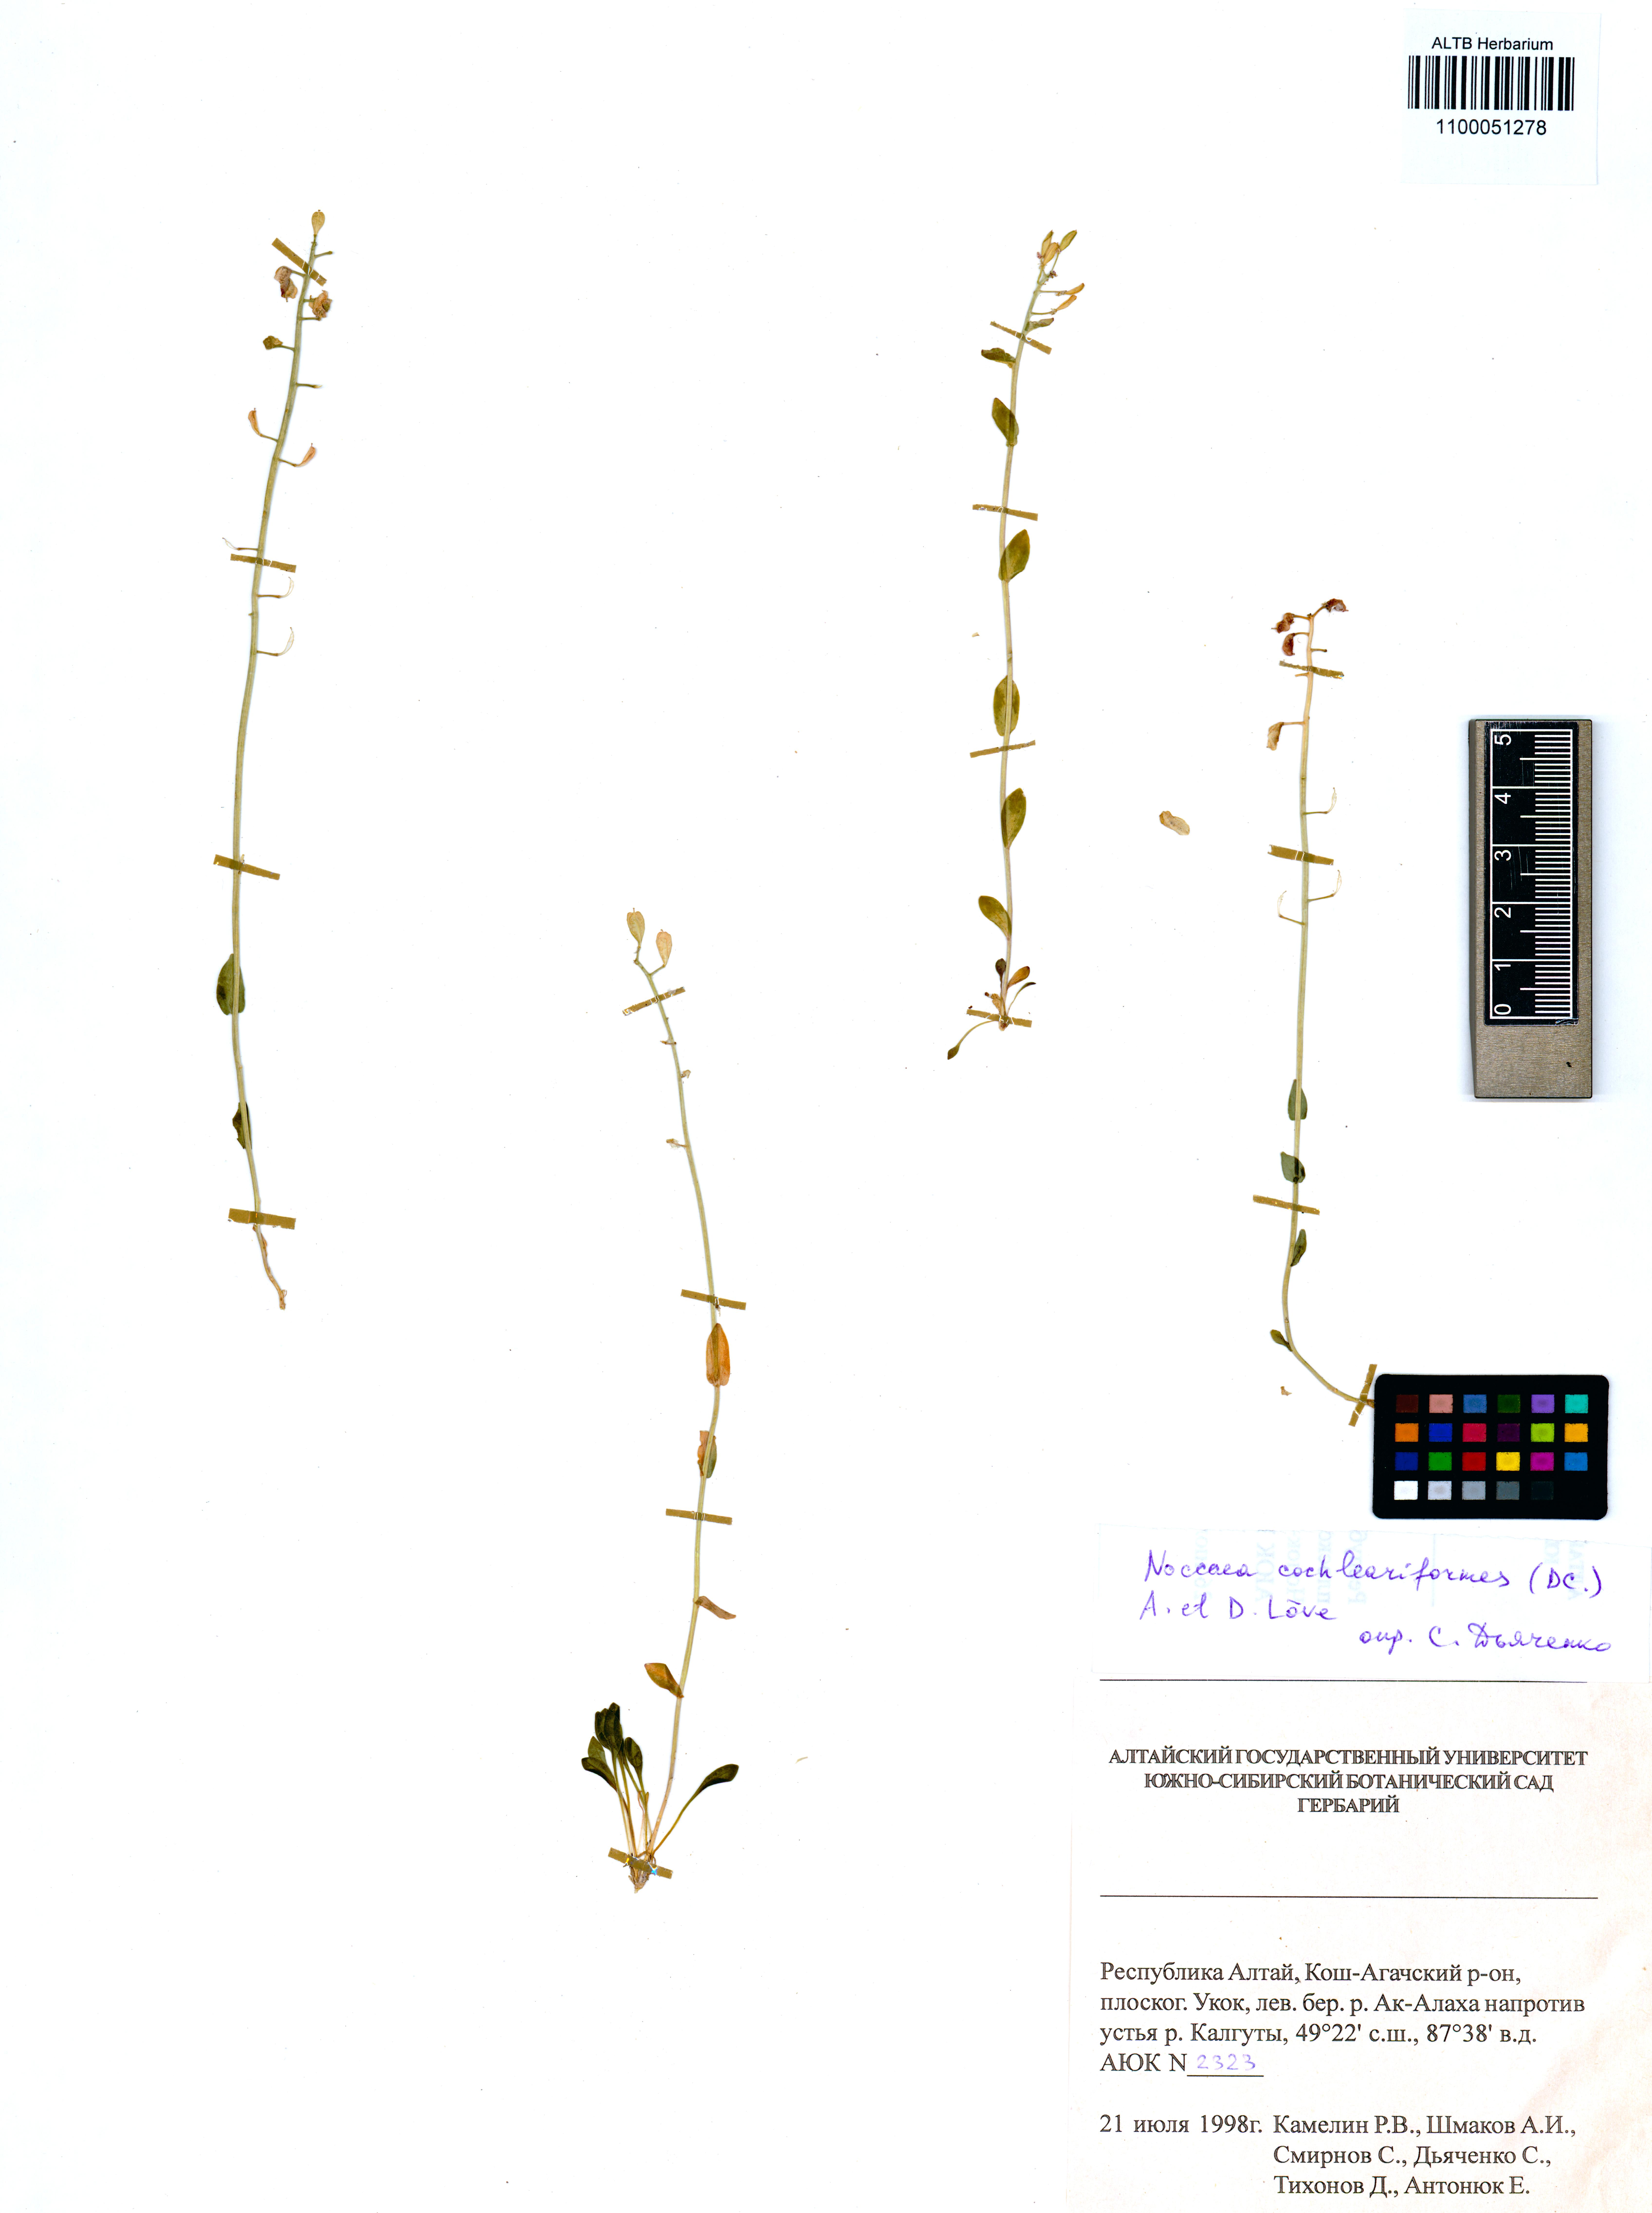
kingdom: Plantae
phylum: Tracheophyta
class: Magnoliopsida
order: Brassicales
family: Brassicaceae
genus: Noccaea
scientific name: Noccaea thlaspidioides
